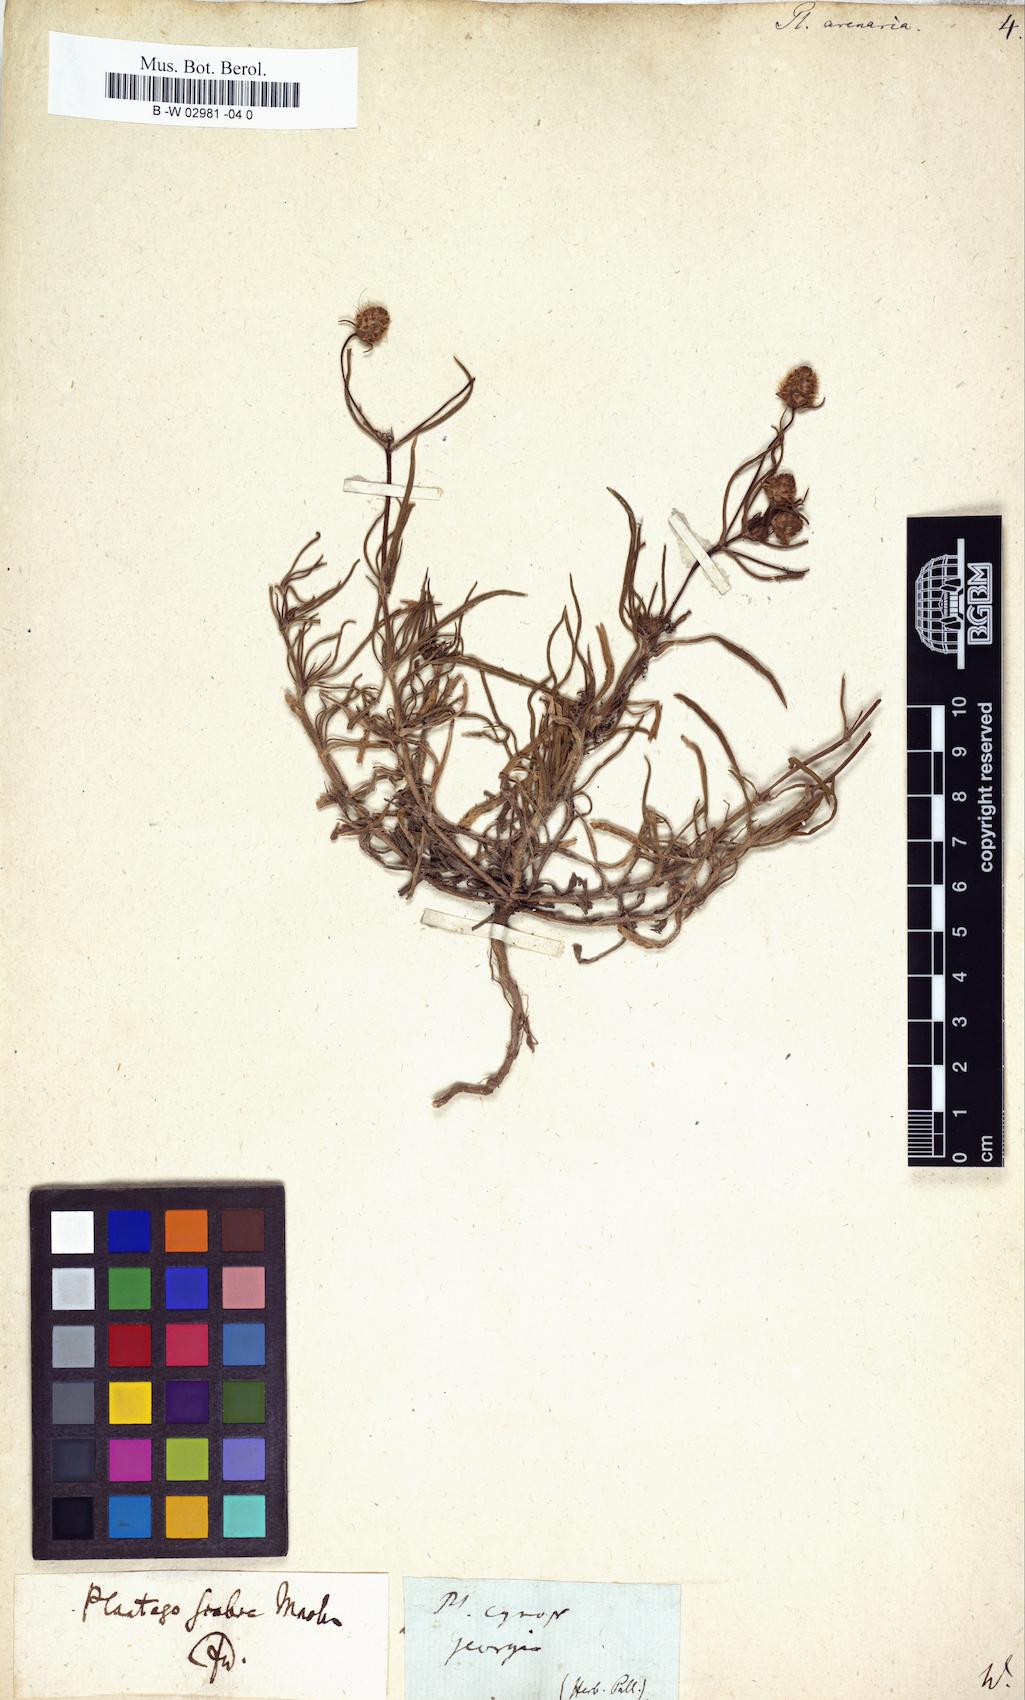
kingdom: Plantae
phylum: Tracheophyta
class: Magnoliopsida
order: Lamiales
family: Plantaginaceae
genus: Plantago
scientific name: Plantago arenaria
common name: Branched plantain
